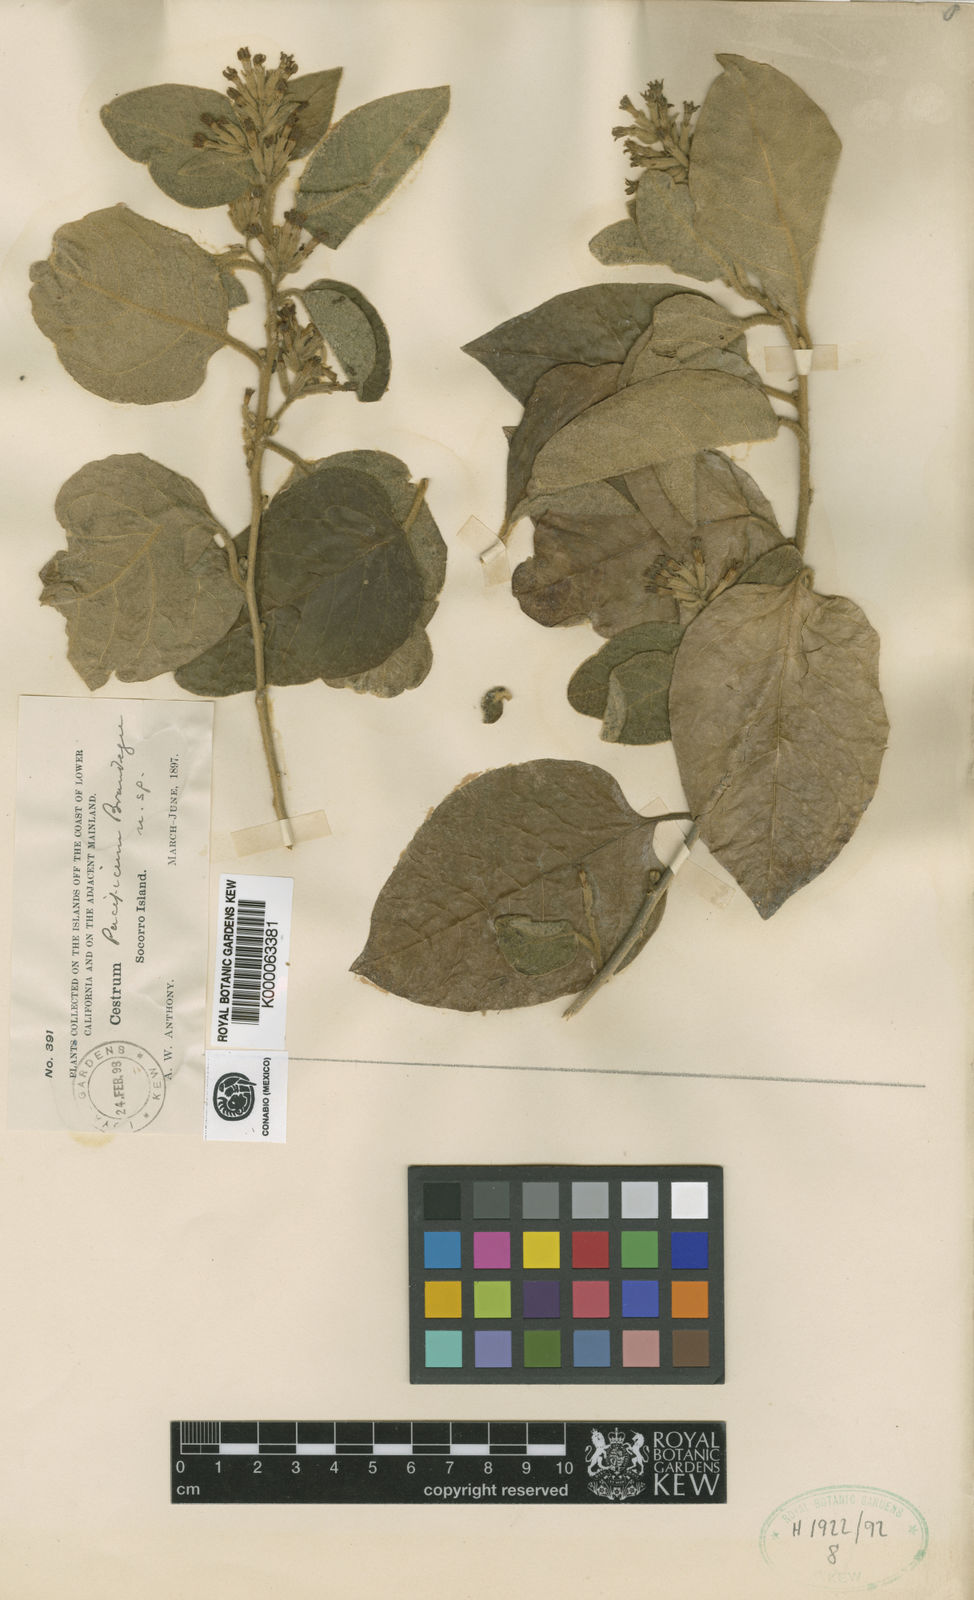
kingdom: Plantae
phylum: Tracheophyta
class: Magnoliopsida
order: Solanales
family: Solanaceae
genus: Cestrum
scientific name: Cestrum pacificum
